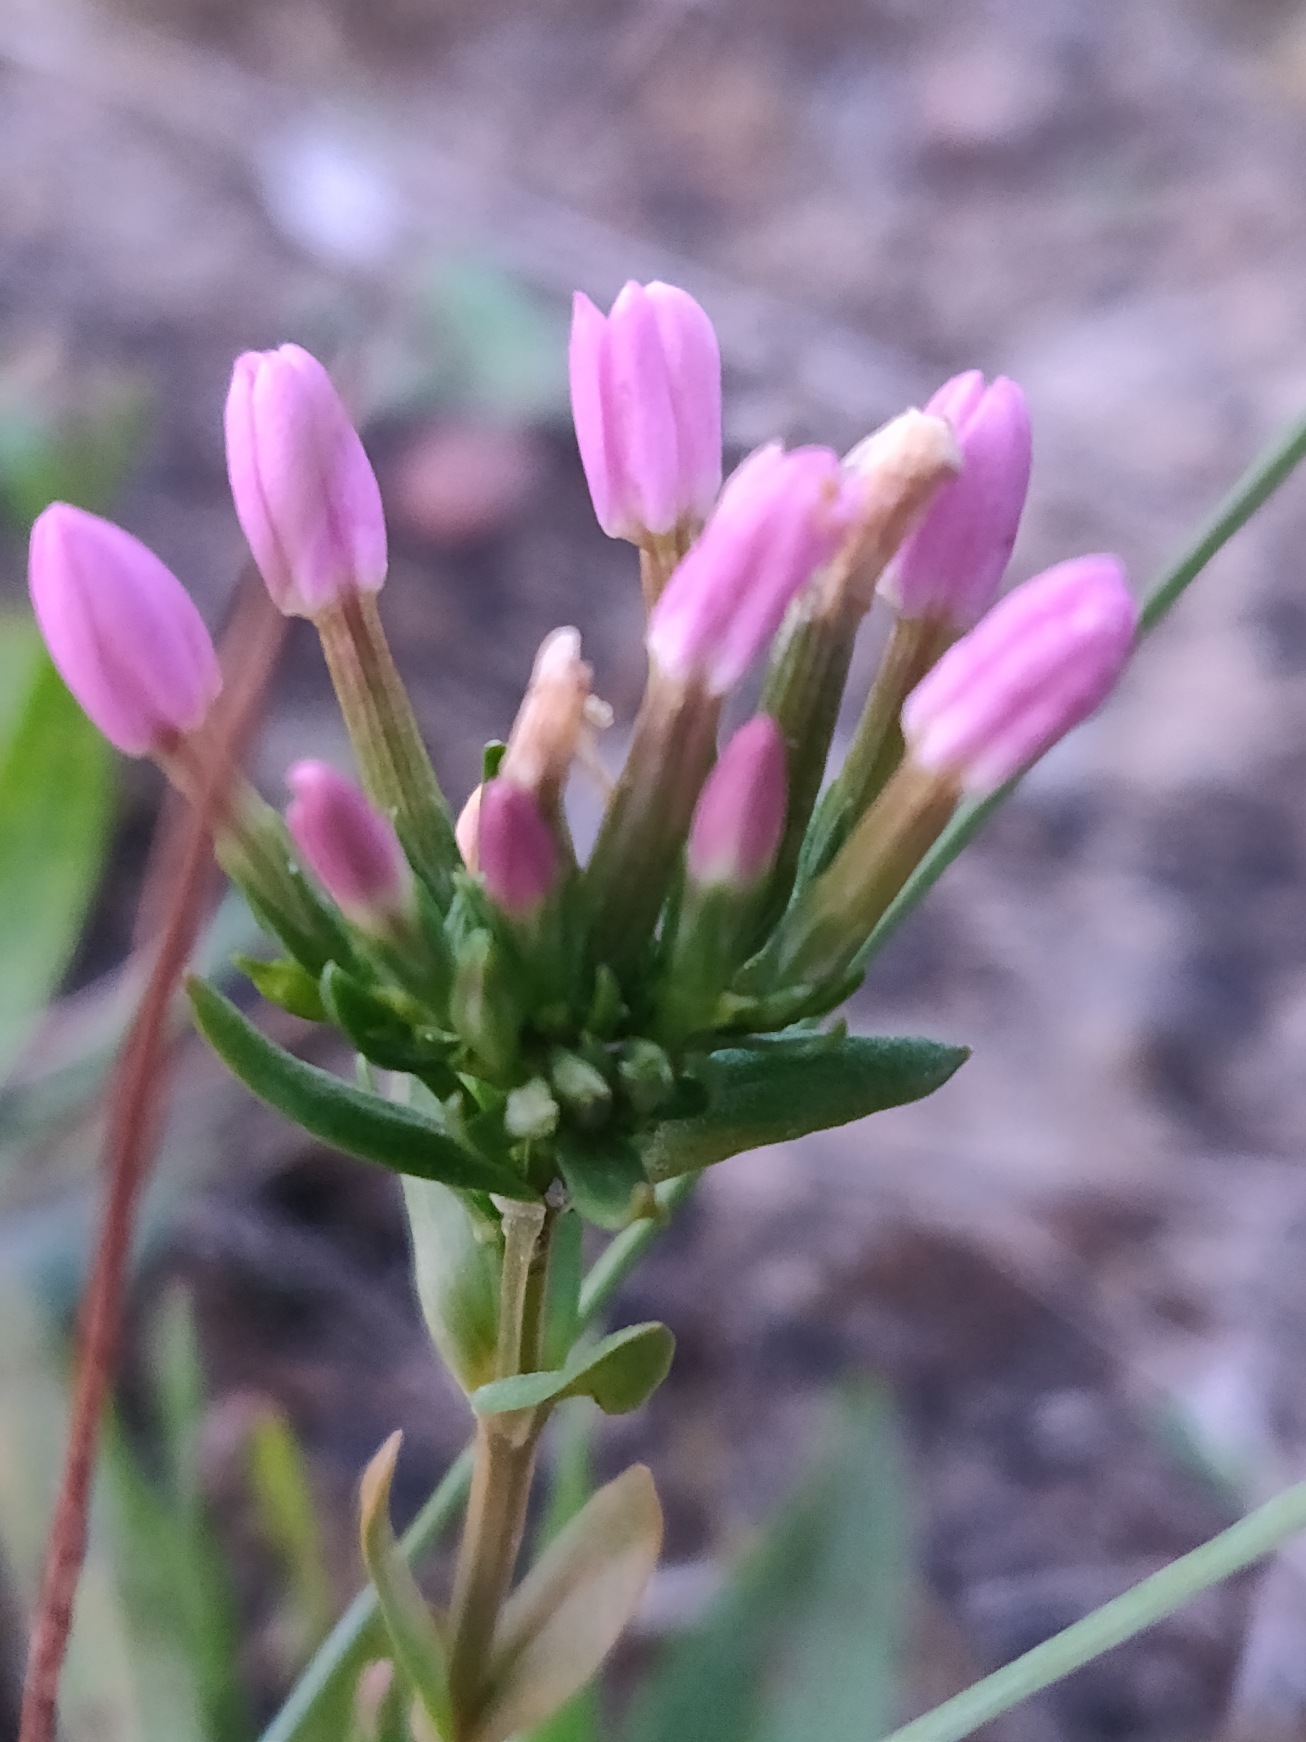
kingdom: Plantae
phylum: Tracheophyta
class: Magnoliopsida
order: Gentianales
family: Gentianaceae
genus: Centaurium
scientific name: Centaurium erythraea
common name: Hoved-tusindgylden
